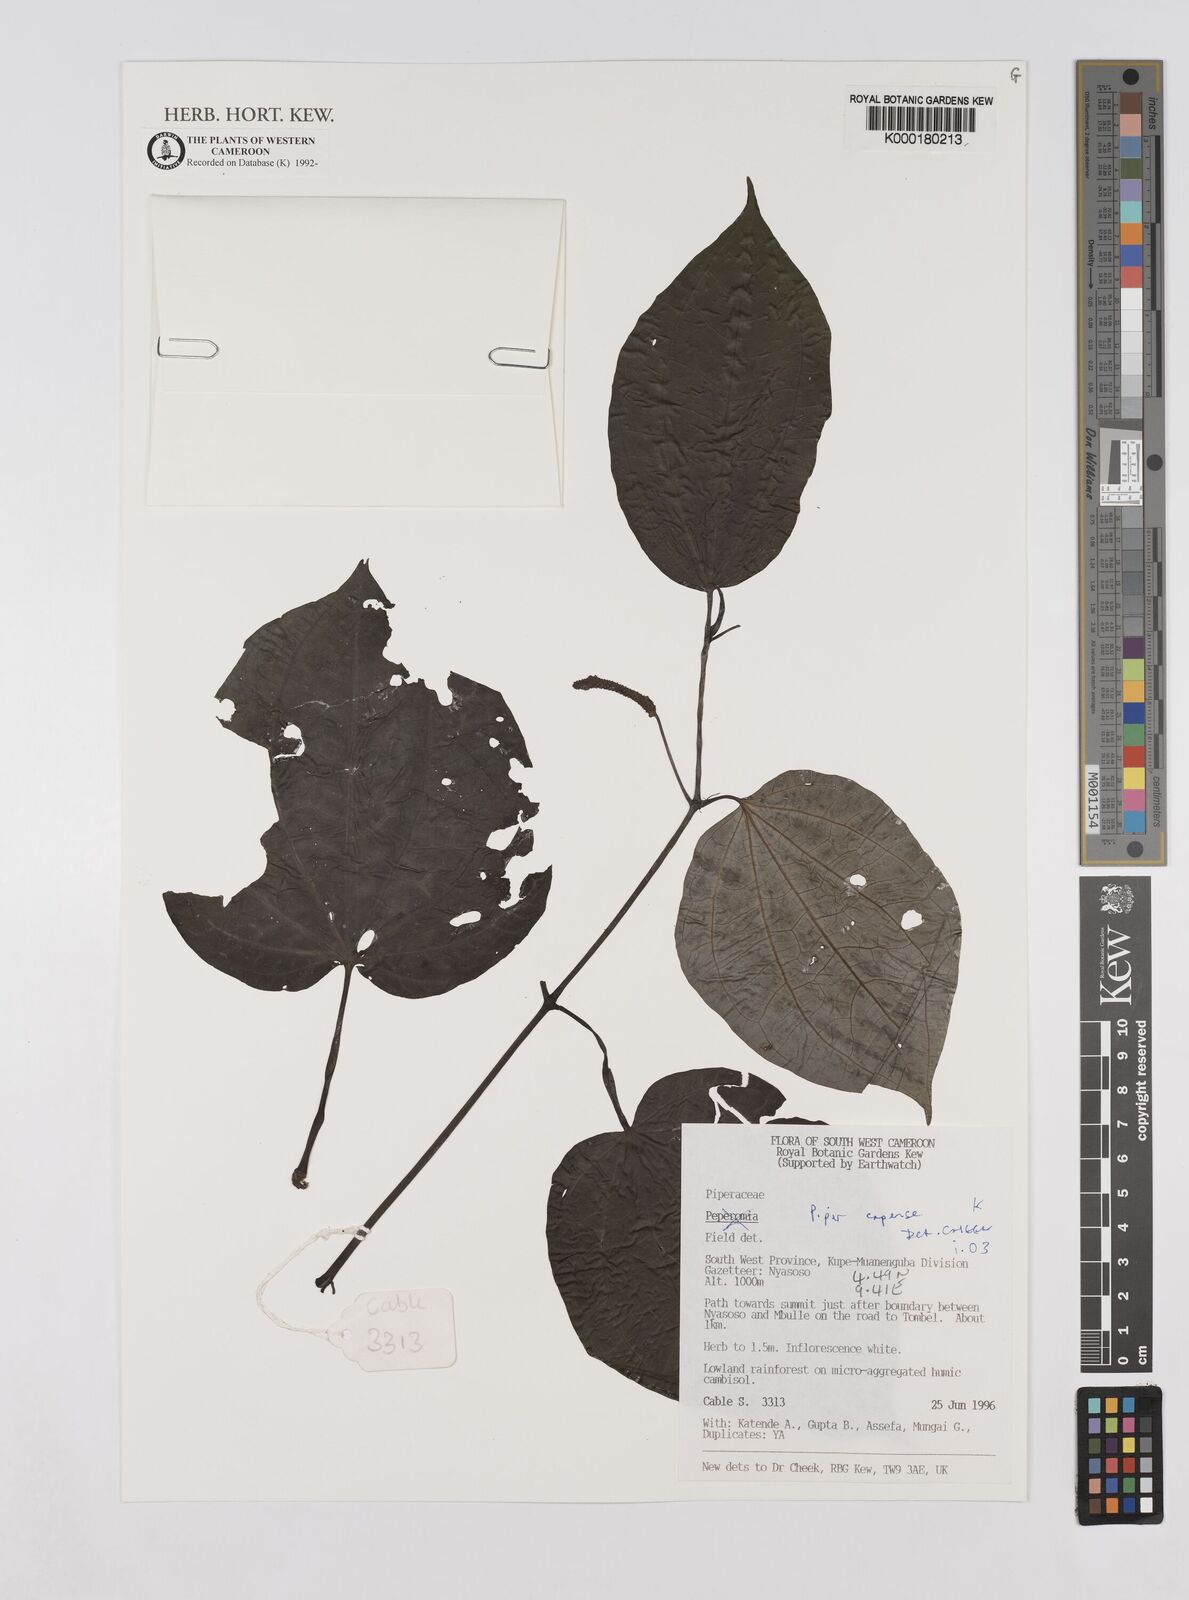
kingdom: Plantae
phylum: Tracheophyta
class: Magnoliopsida
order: Piperales
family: Piperaceae
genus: Piper
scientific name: Piper capense
